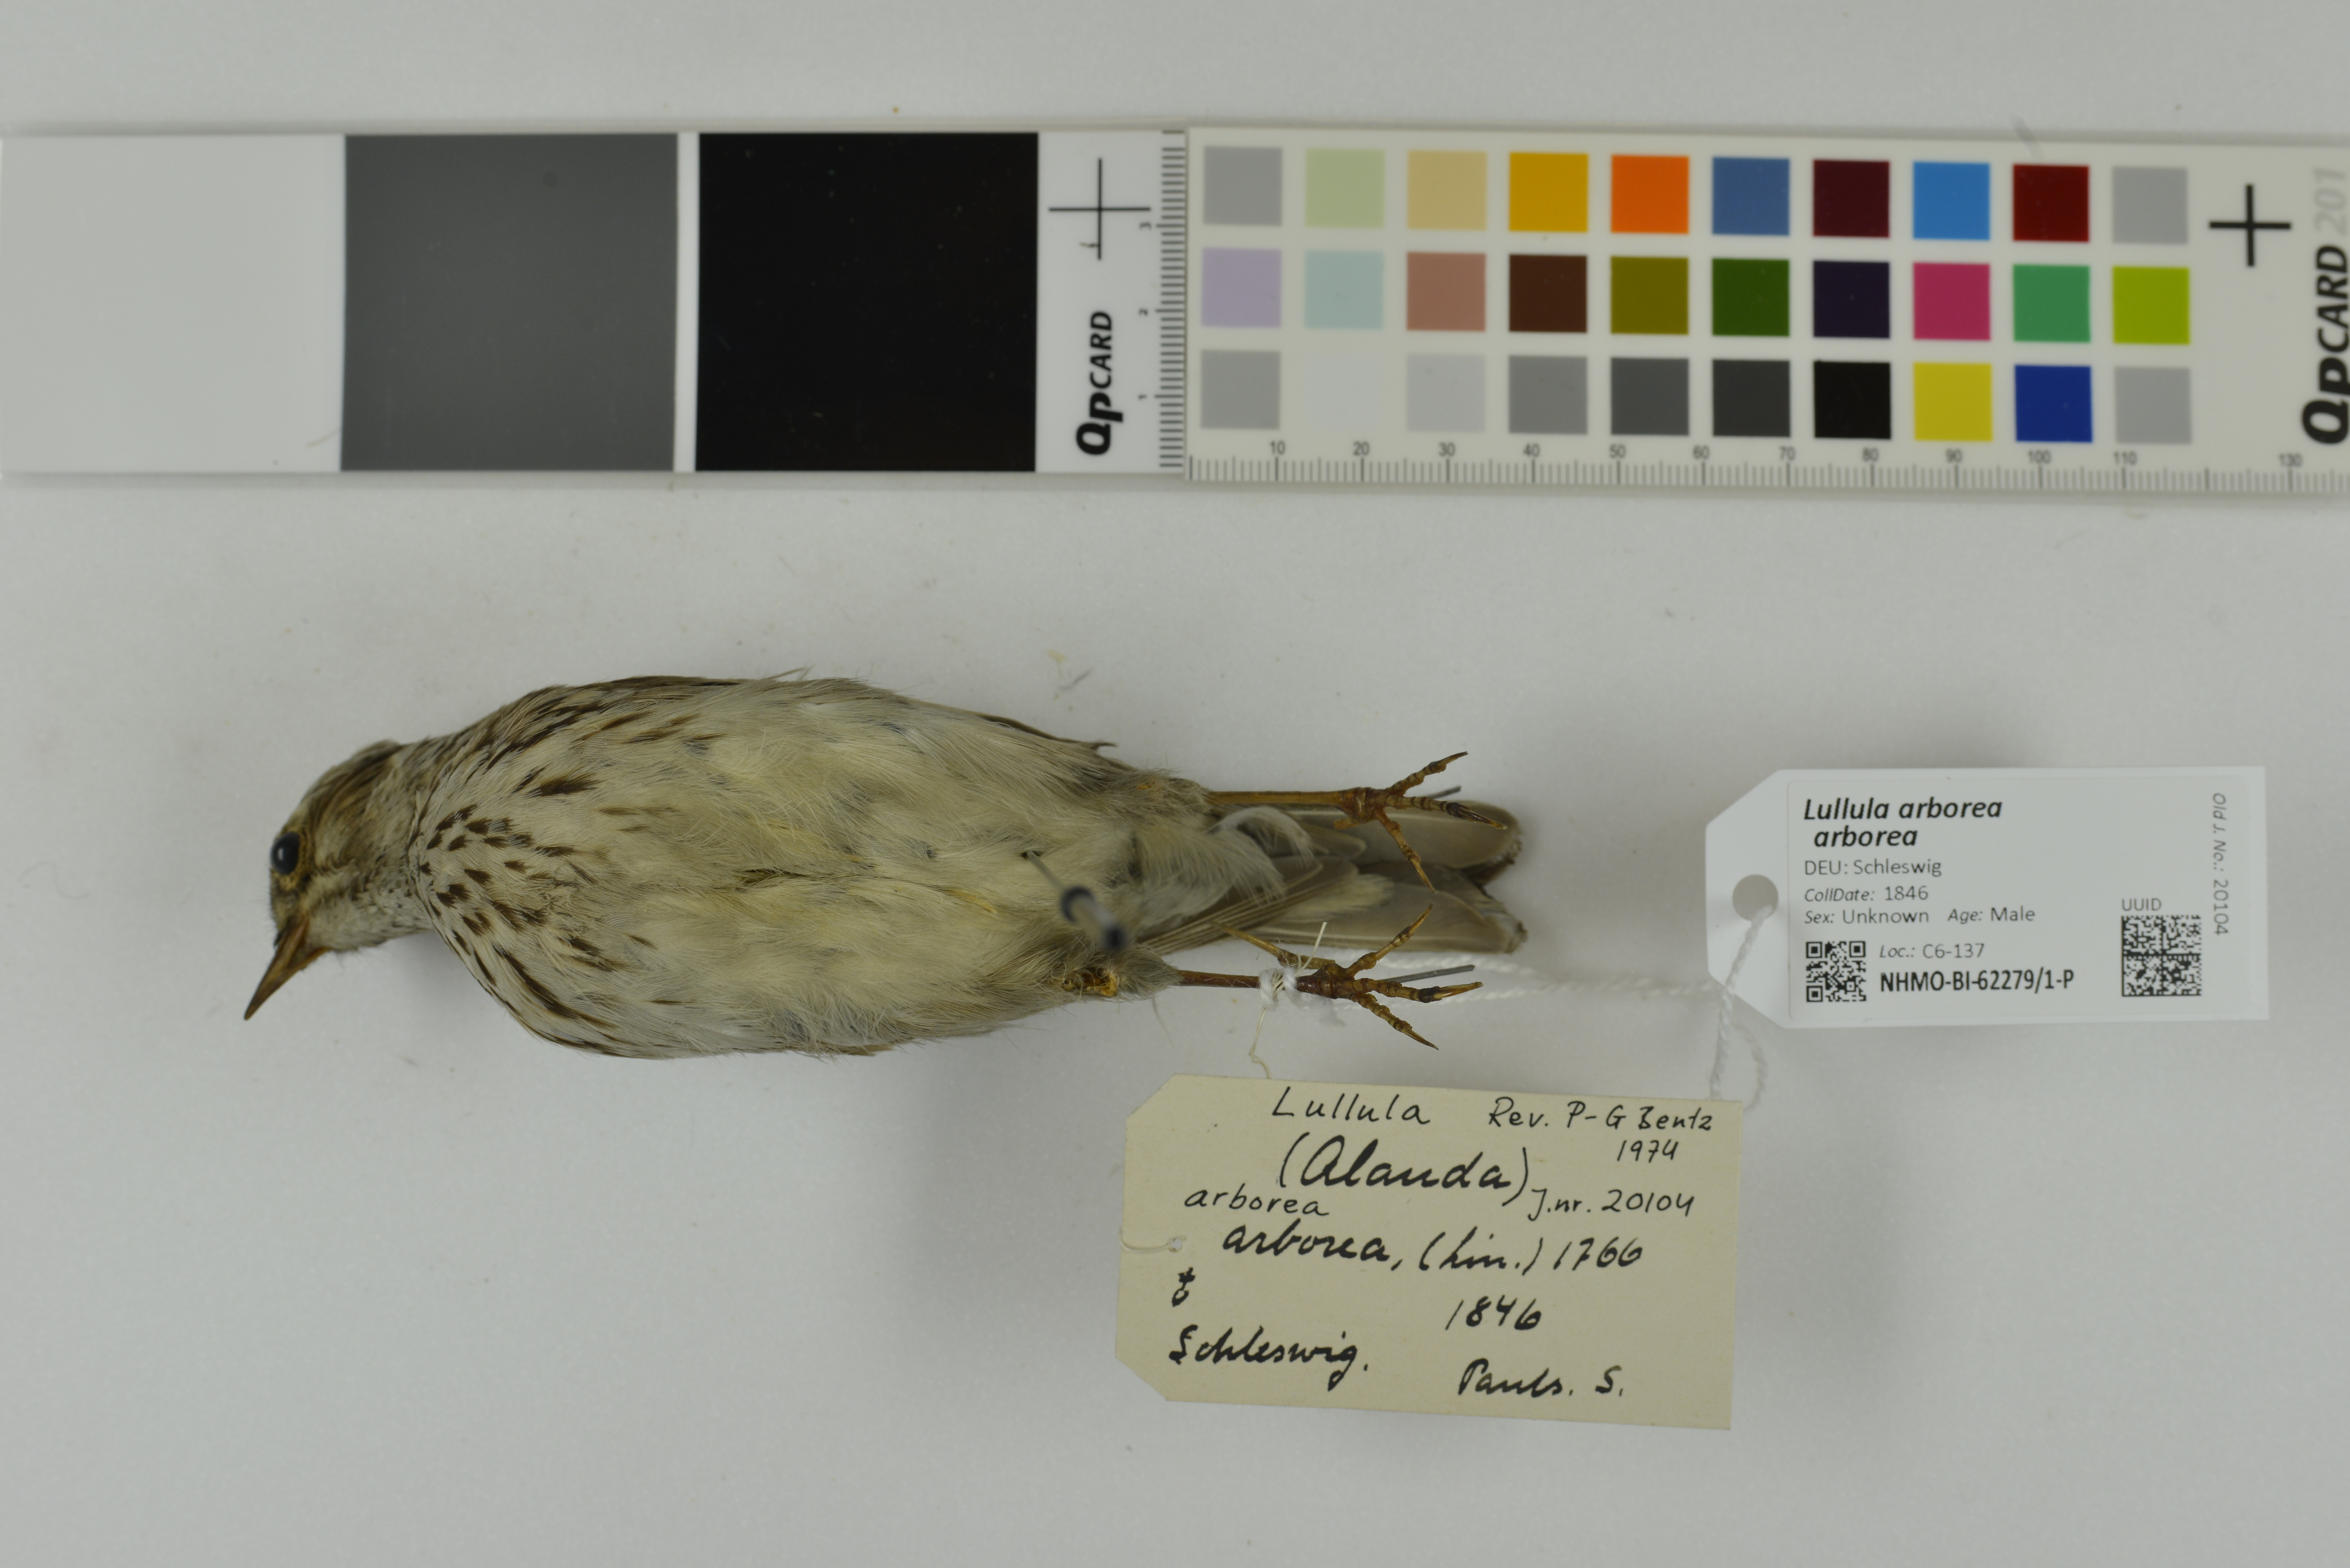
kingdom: Animalia
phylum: Chordata
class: Aves
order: Passeriformes
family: Alaudidae
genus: Lullula
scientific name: Lullula arborea
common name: Woodlark
